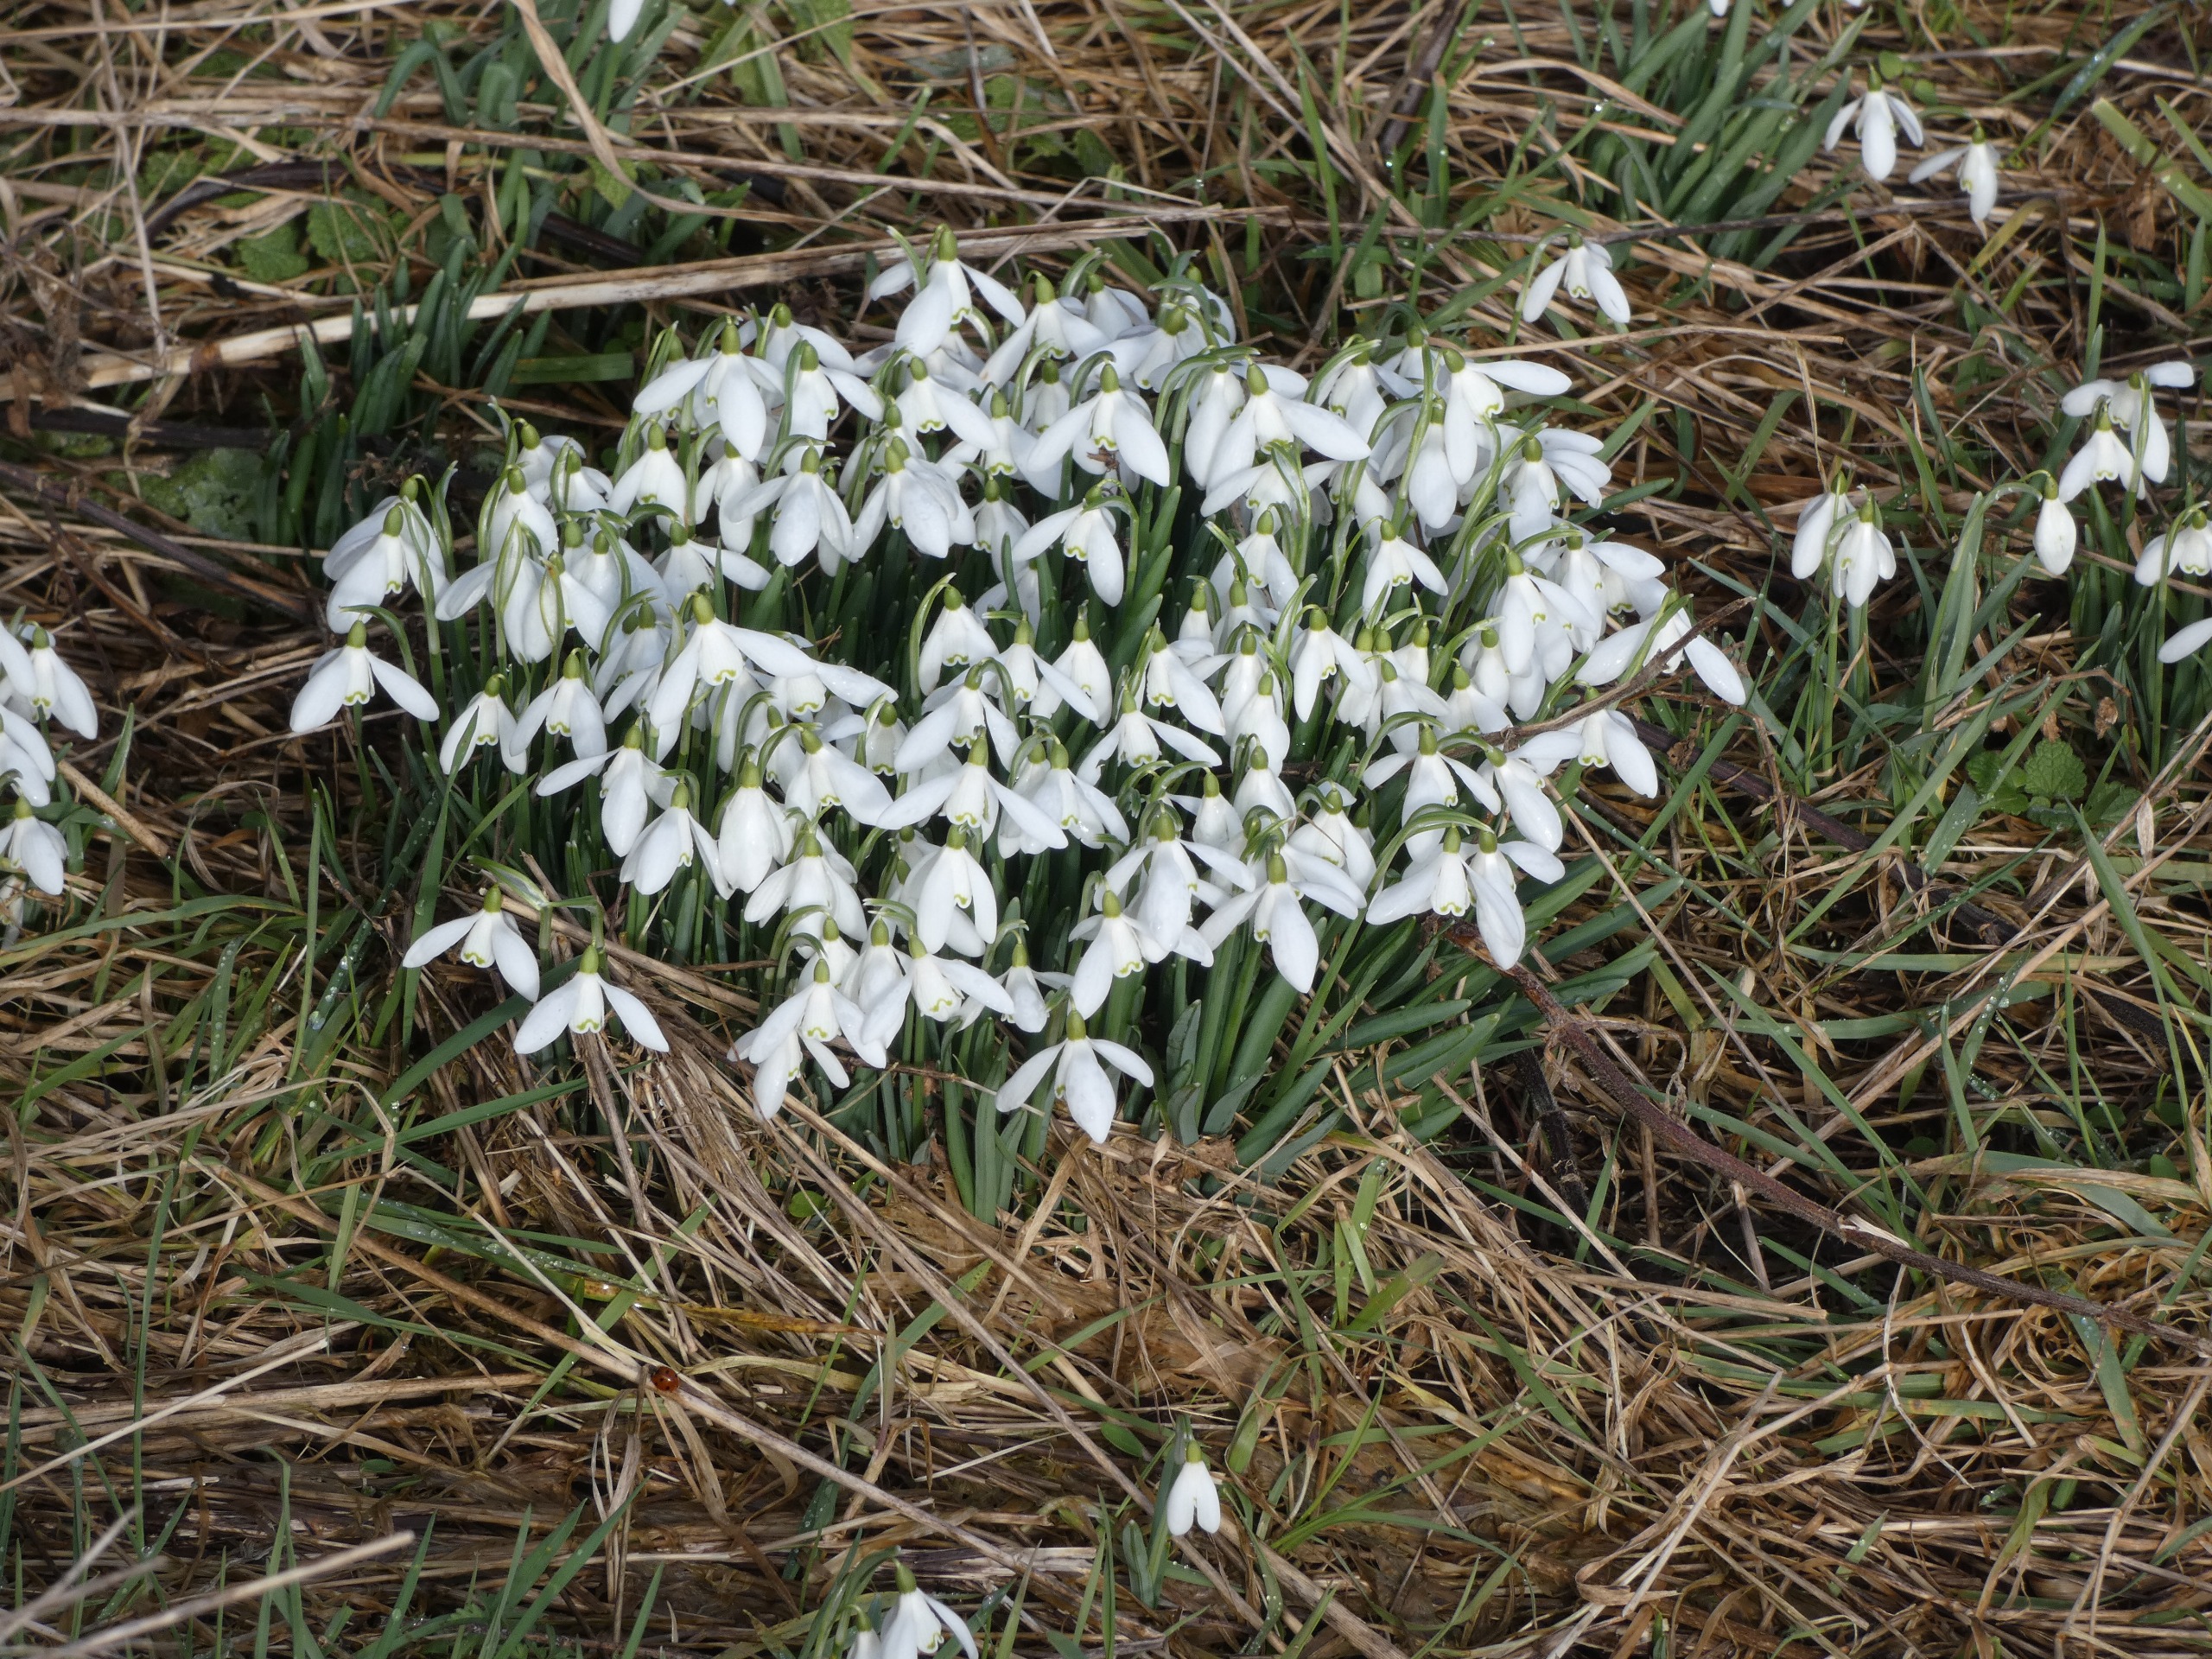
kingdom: Plantae
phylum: Tracheophyta
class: Liliopsida
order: Asparagales
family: Amaryllidaceae
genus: Galanthus
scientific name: Galanthus nivalis
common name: Vintergæk
